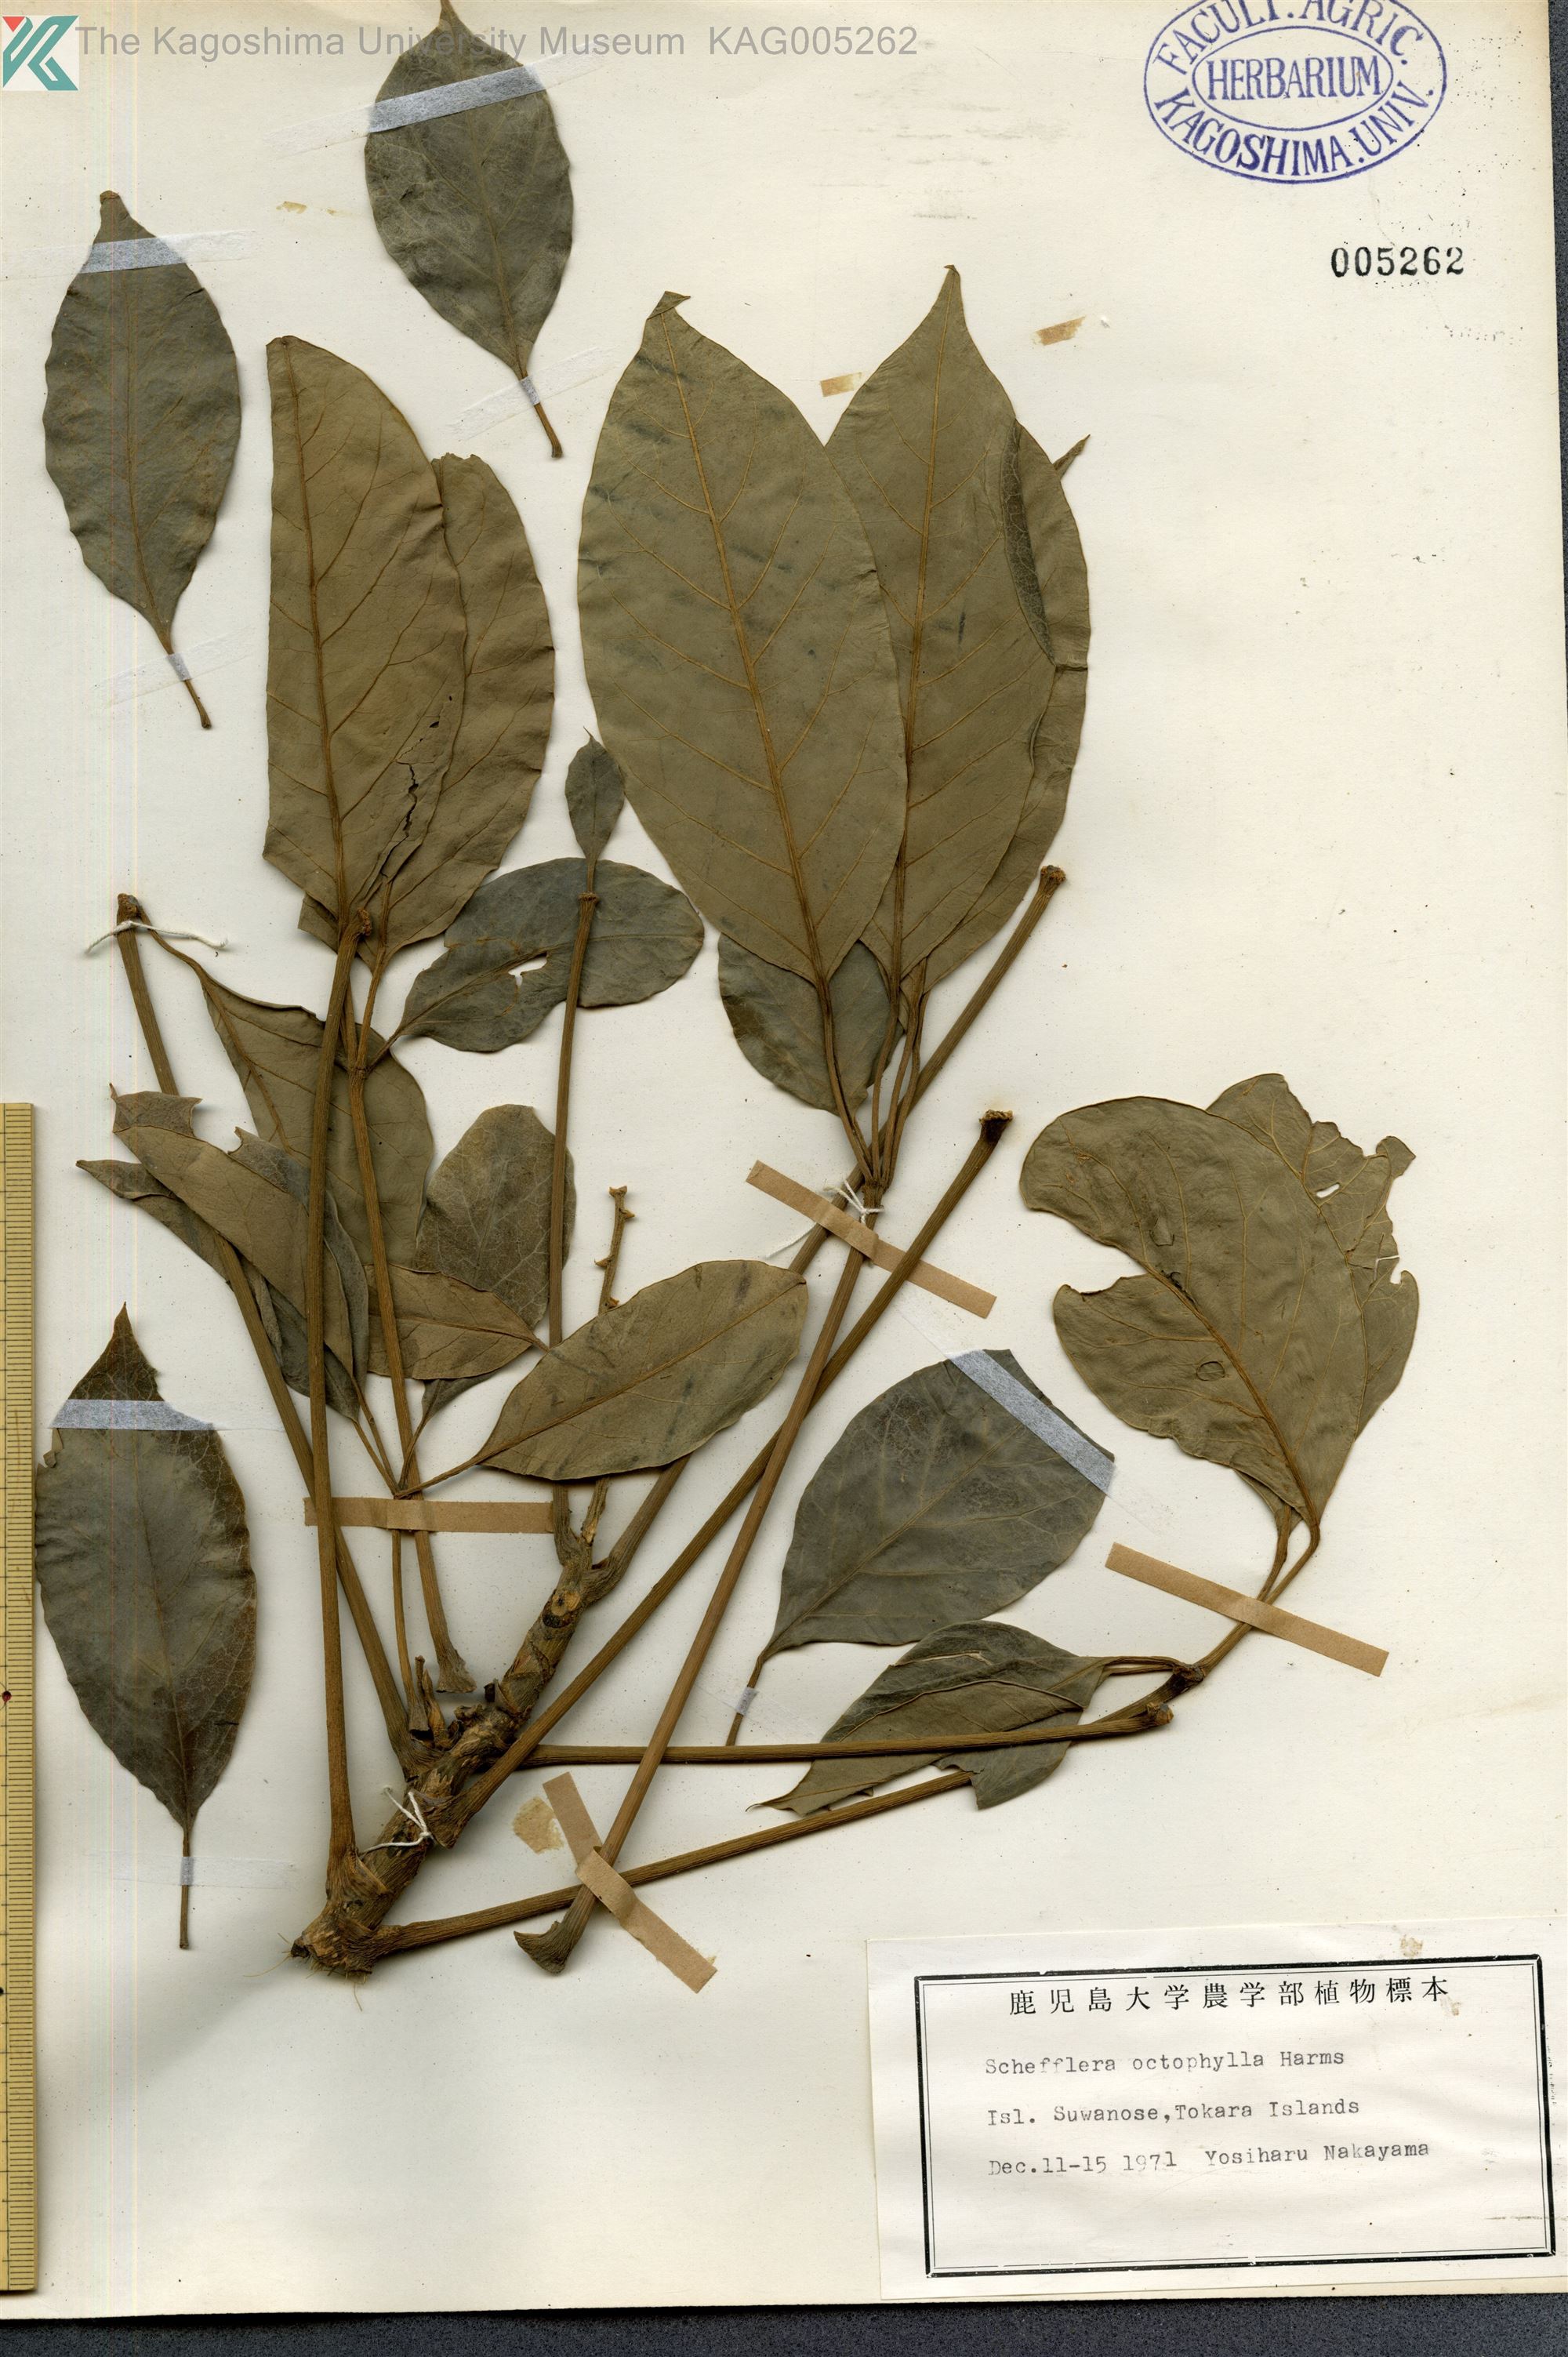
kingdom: Plantae
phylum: Tracheophyta
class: Magnoliopsida
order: Apiales
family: Araliaceae
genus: Heptapleurum
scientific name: Heptapleurum heptaphyllum
